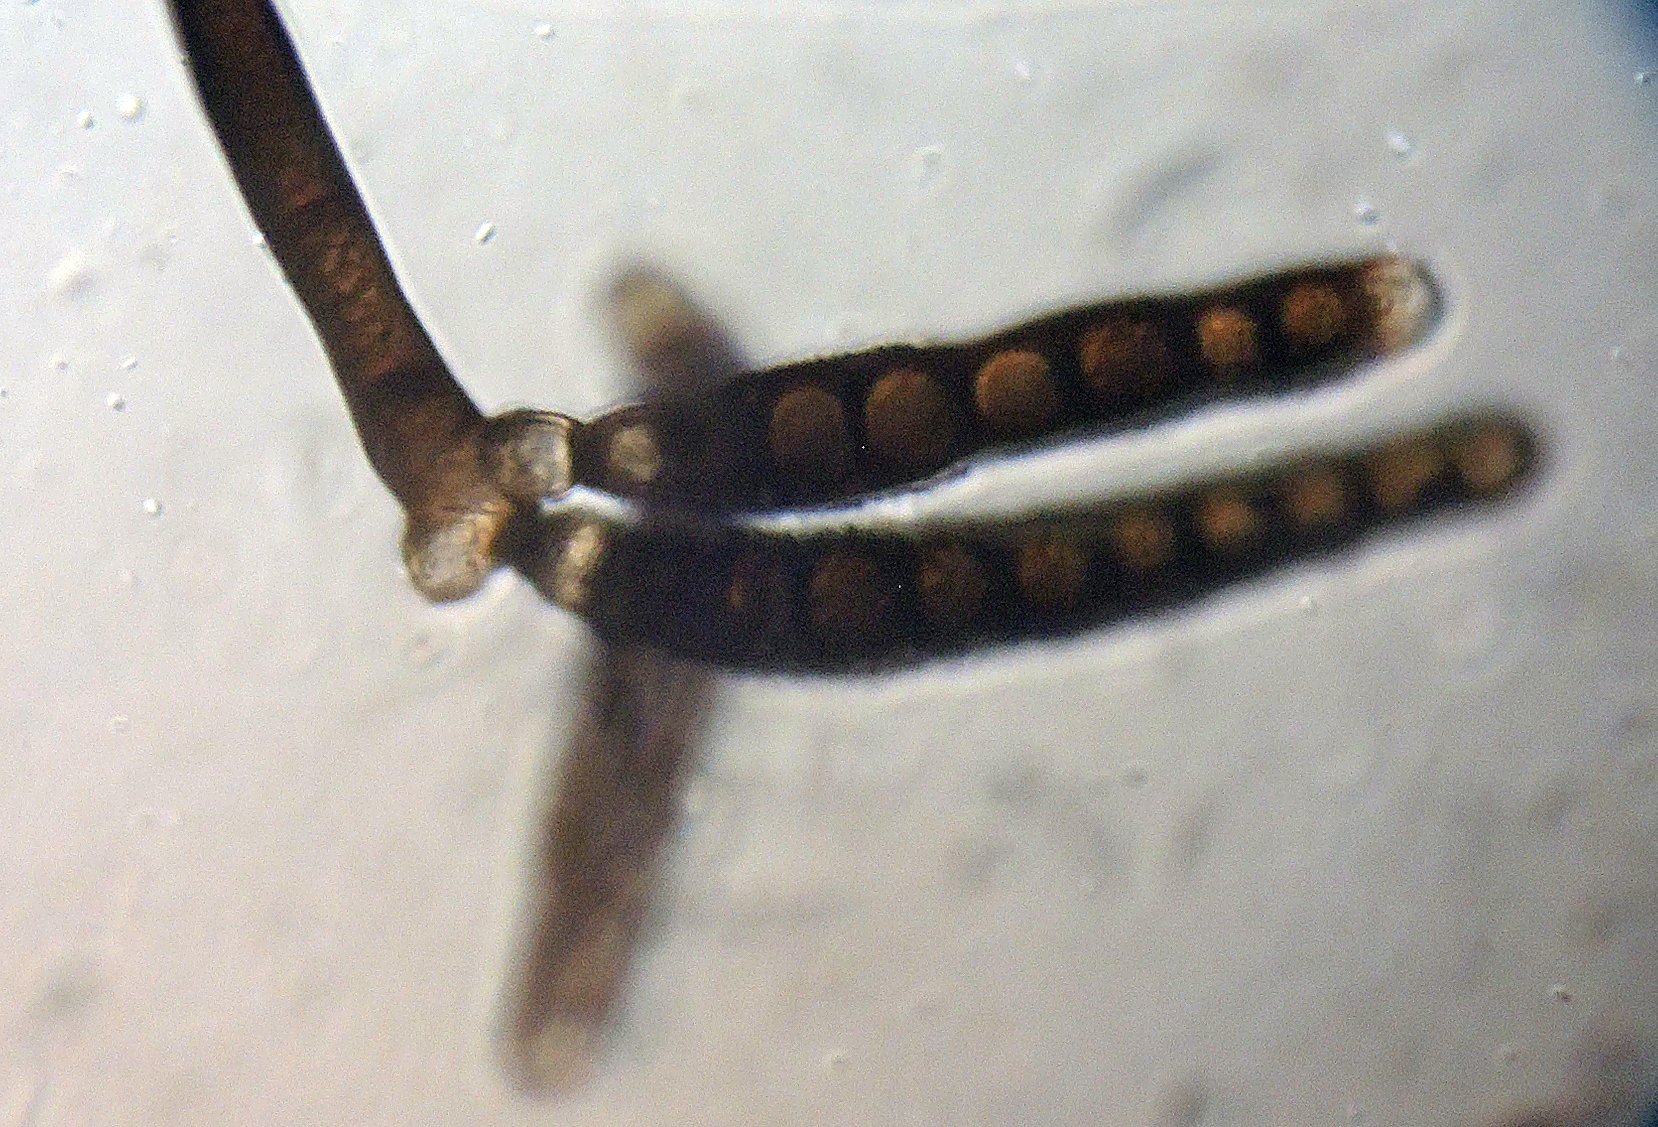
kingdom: Fungi
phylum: Ascomycota
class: Dothideomycetes
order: Pleosporales
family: Torulaceae
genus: Dendryphion
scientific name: Dendryphion nanum
